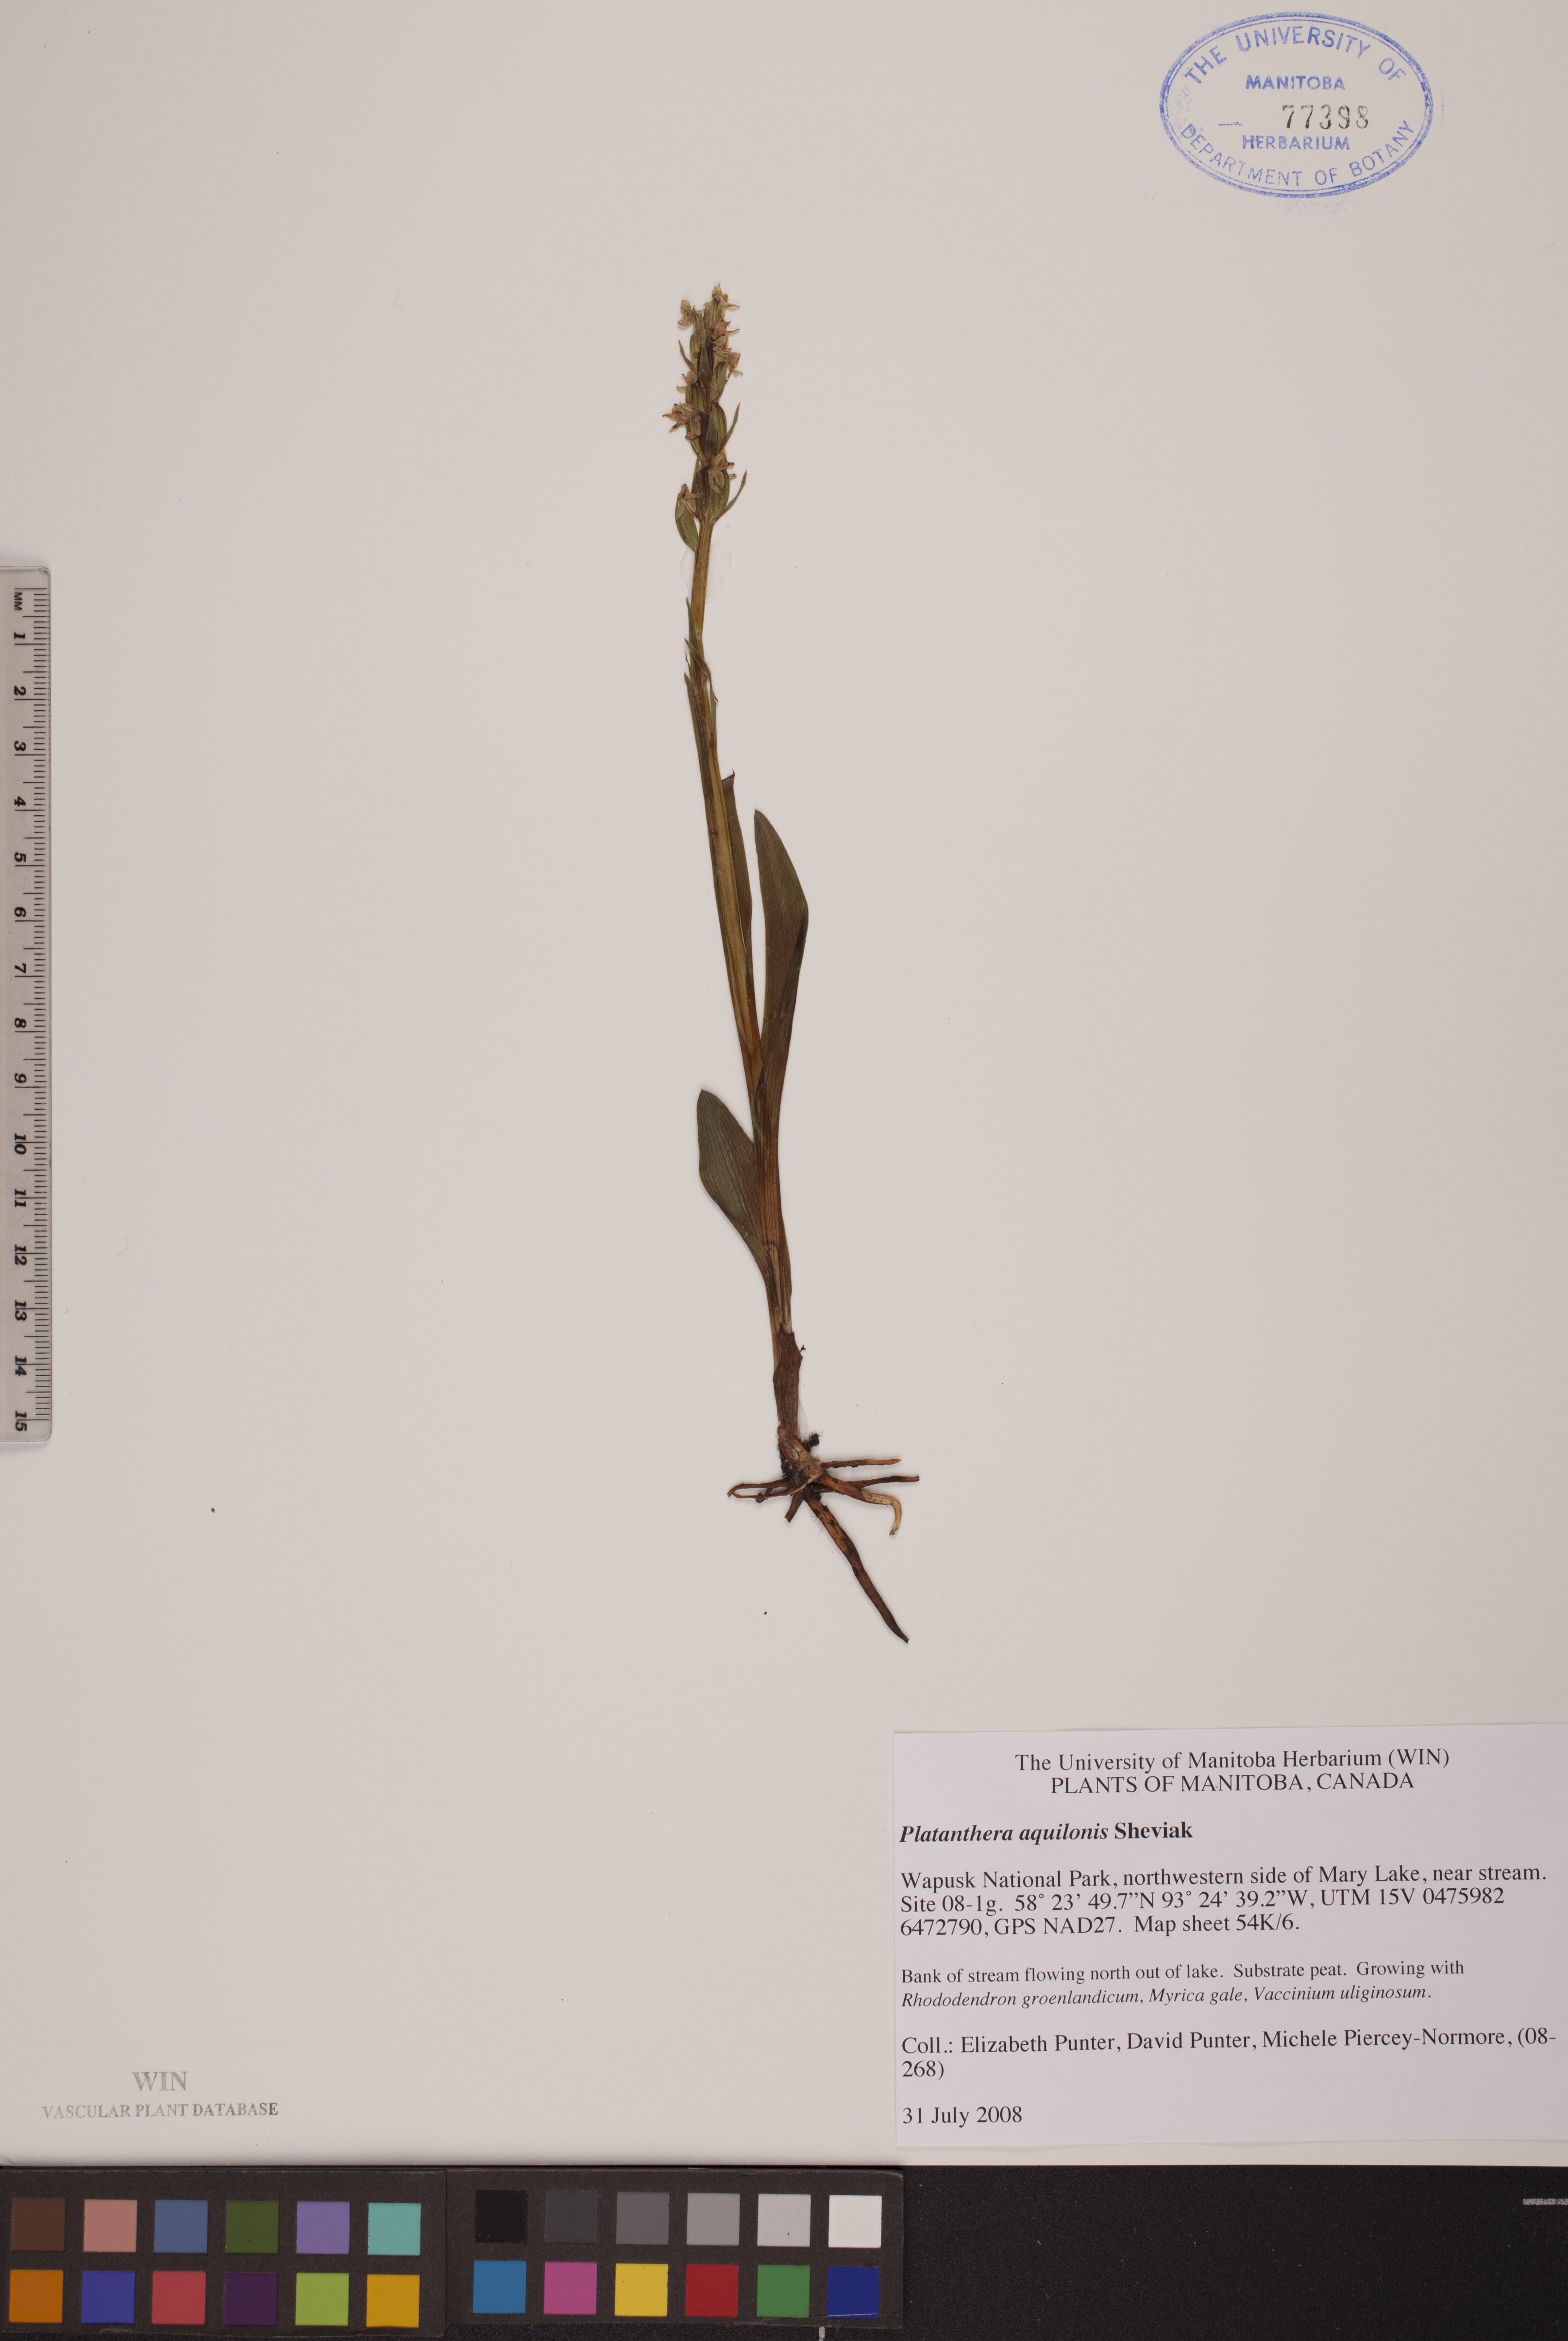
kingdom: Plantae
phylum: Tracheophyta
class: Liliopsida
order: Asparagales
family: Orchidaceae
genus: Platanthera
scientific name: Platanthera aquilonis
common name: Northern green orchid
